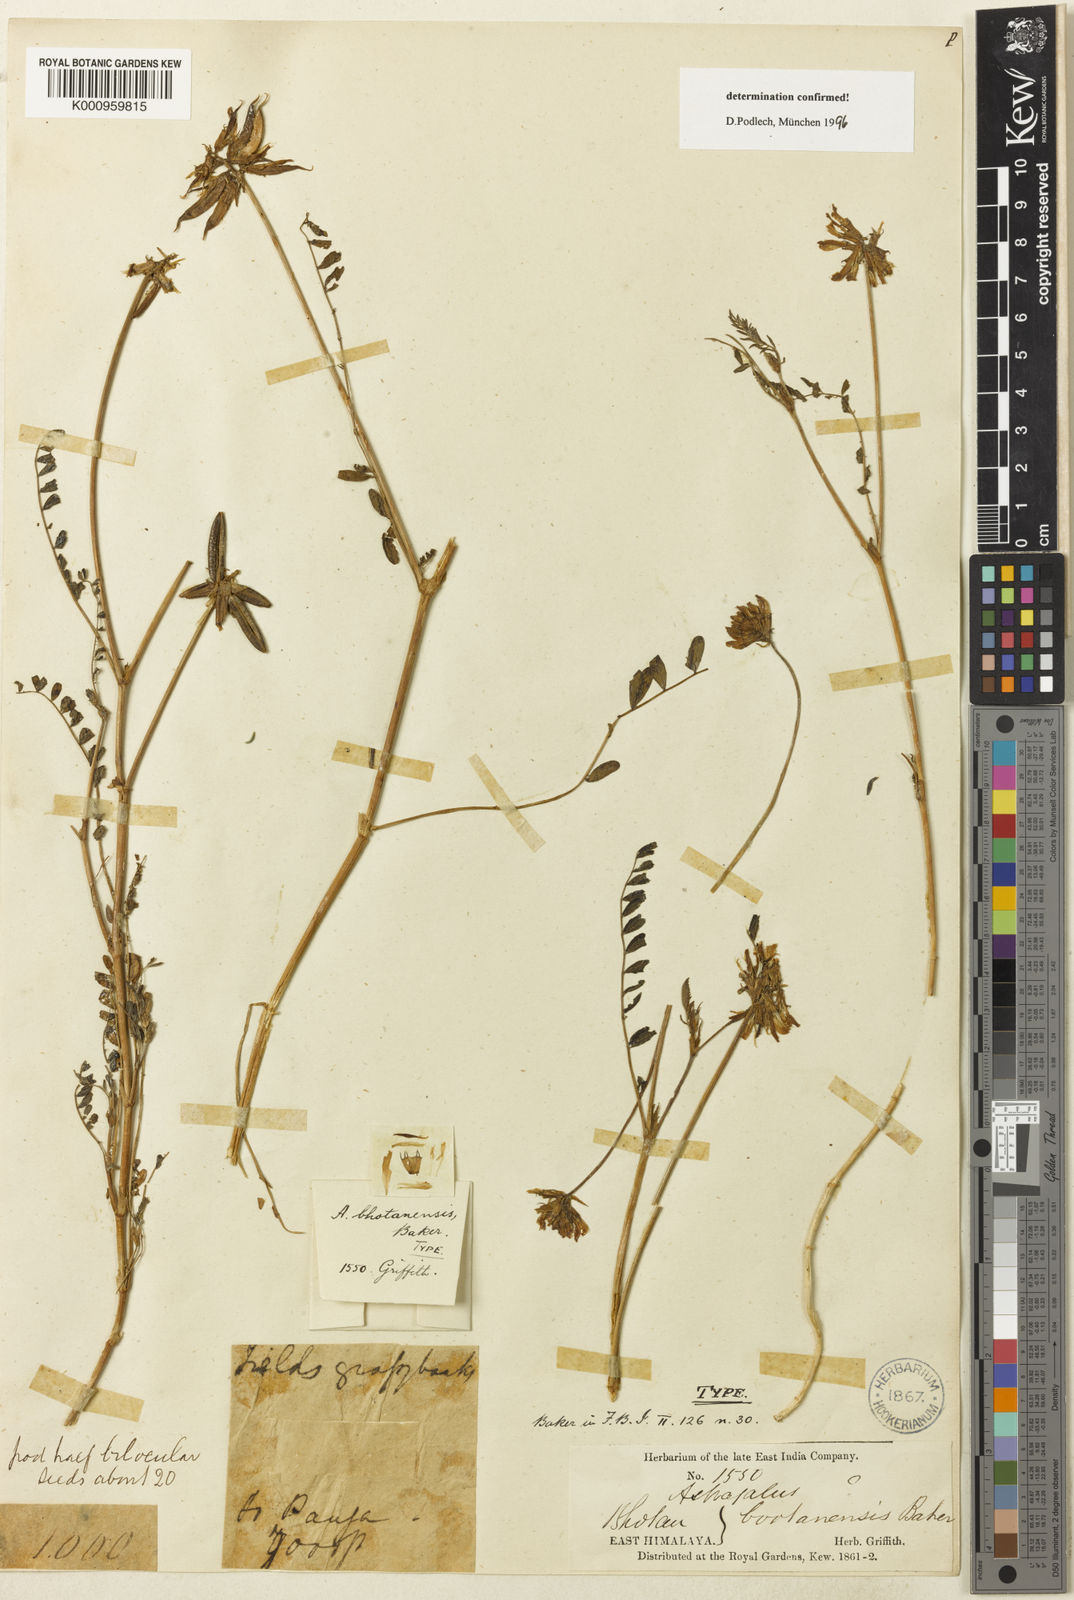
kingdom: Plantae
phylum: Tracheophyta
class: Magnoliopsida
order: Fabales
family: Fabaceae
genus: Astragalus
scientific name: Astragalus
